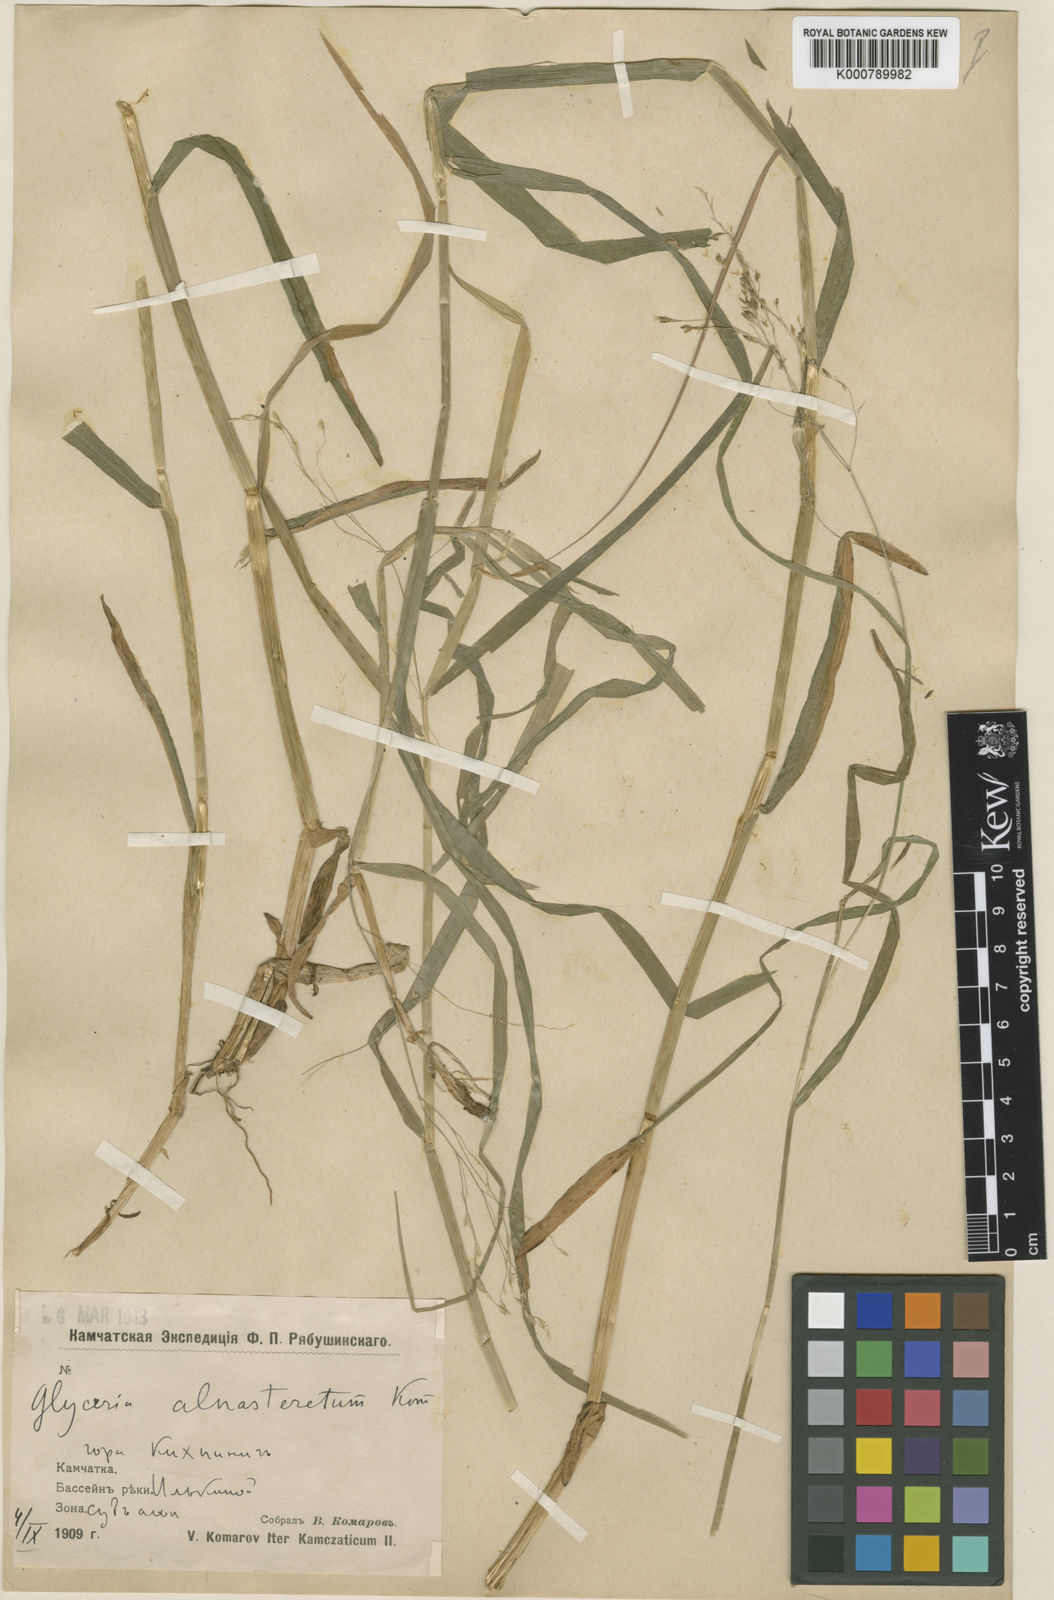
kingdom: Plantae
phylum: Tracheophyta
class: Liliopsida
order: Poales
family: Poaceae
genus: Glyceria
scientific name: Glyceria alnasteretum
